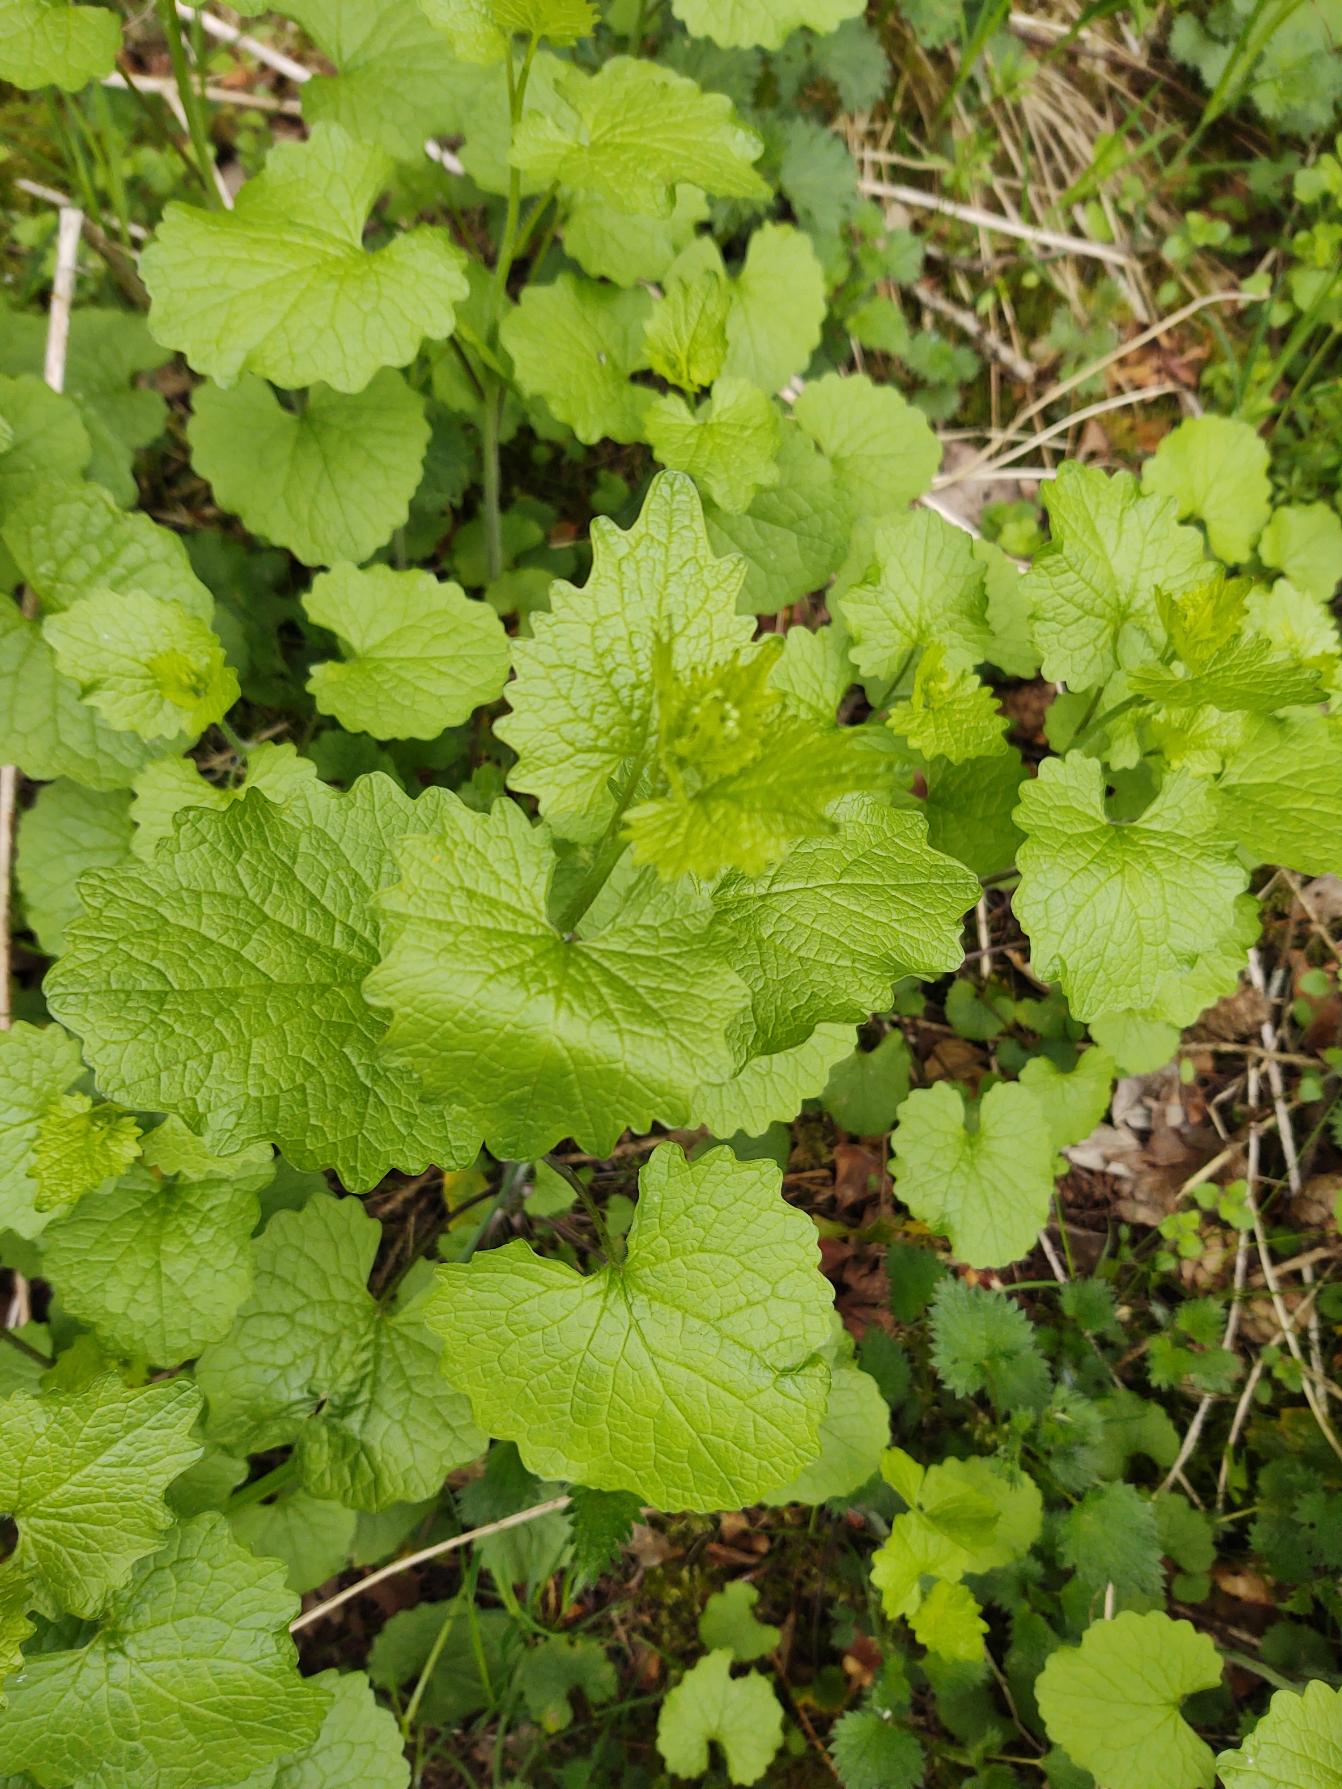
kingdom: Plantae
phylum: Tracheophyta
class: Magnoliopsida
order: Brassicales
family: Brassicaceae
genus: Alliaria
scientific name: Alliaria petiolata
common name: Løgkarse
